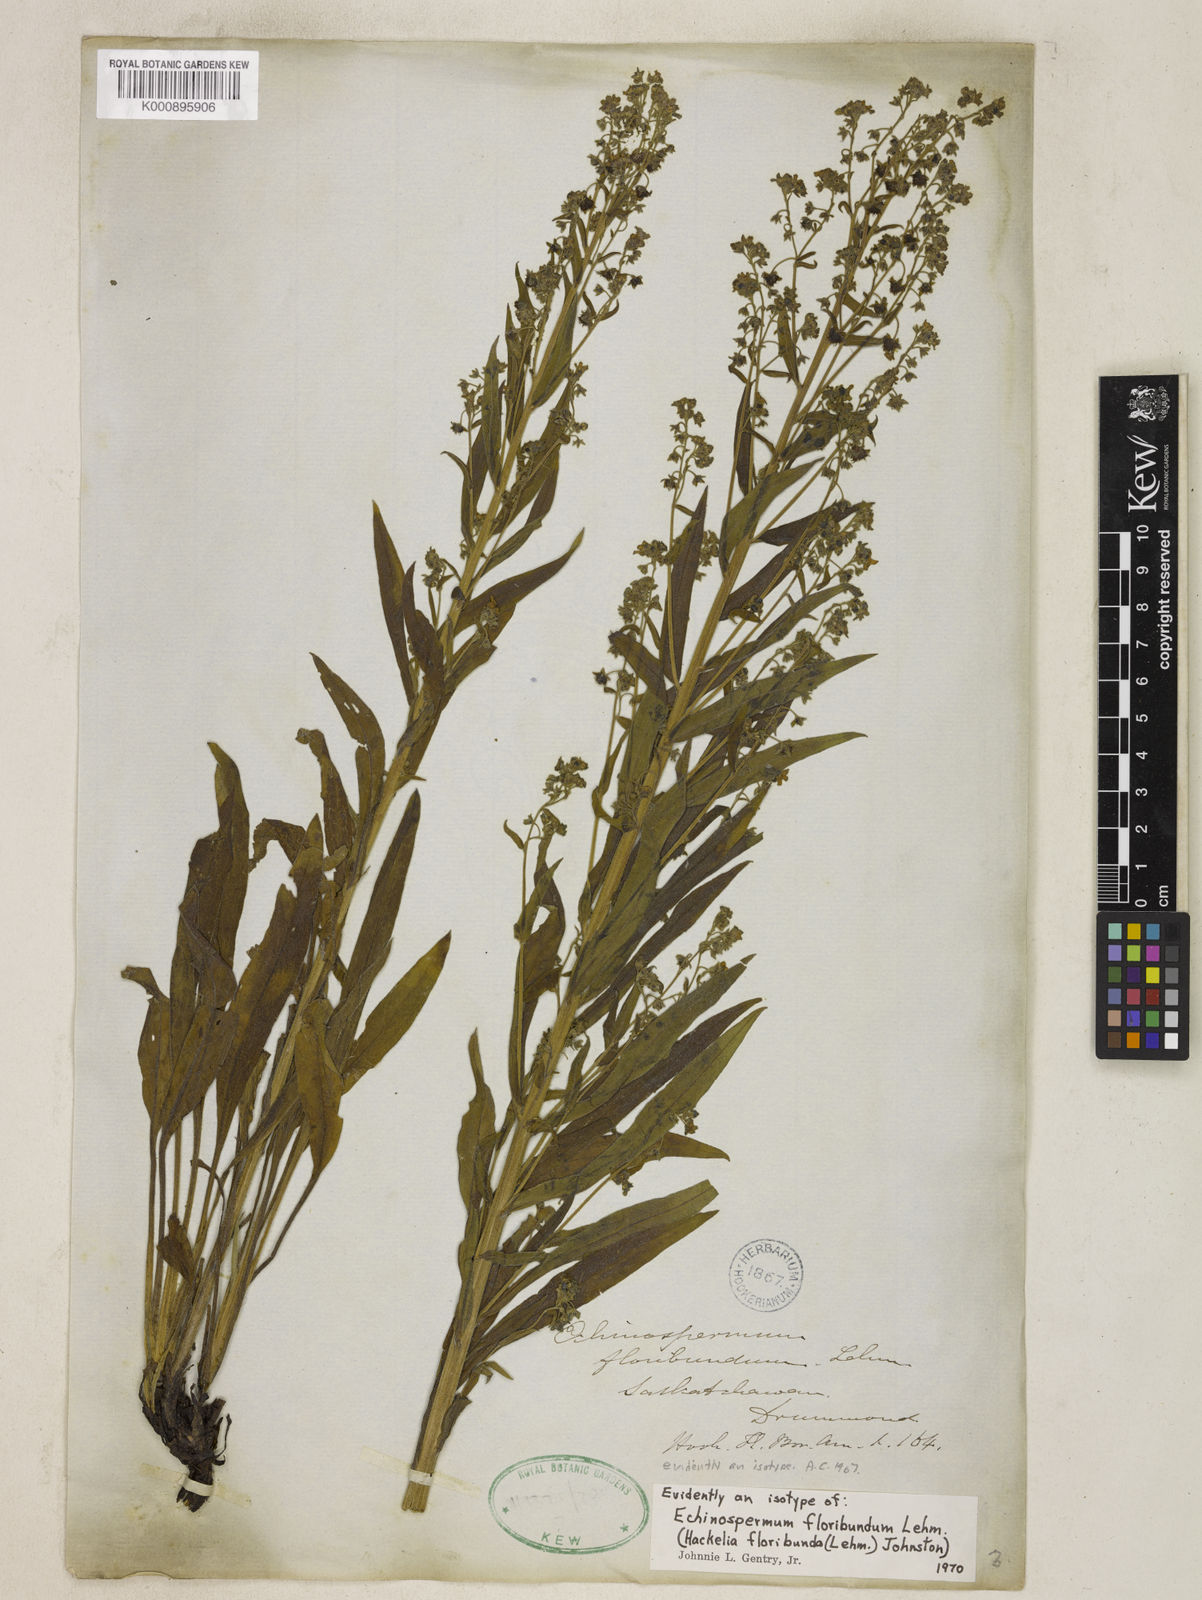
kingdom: Plantae
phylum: Tracheophyta
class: Magnoliopsida
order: Boraginales
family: Boraginaceae
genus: Hackelia
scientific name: Hackelia floribunda
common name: Large-flowered stickseed
